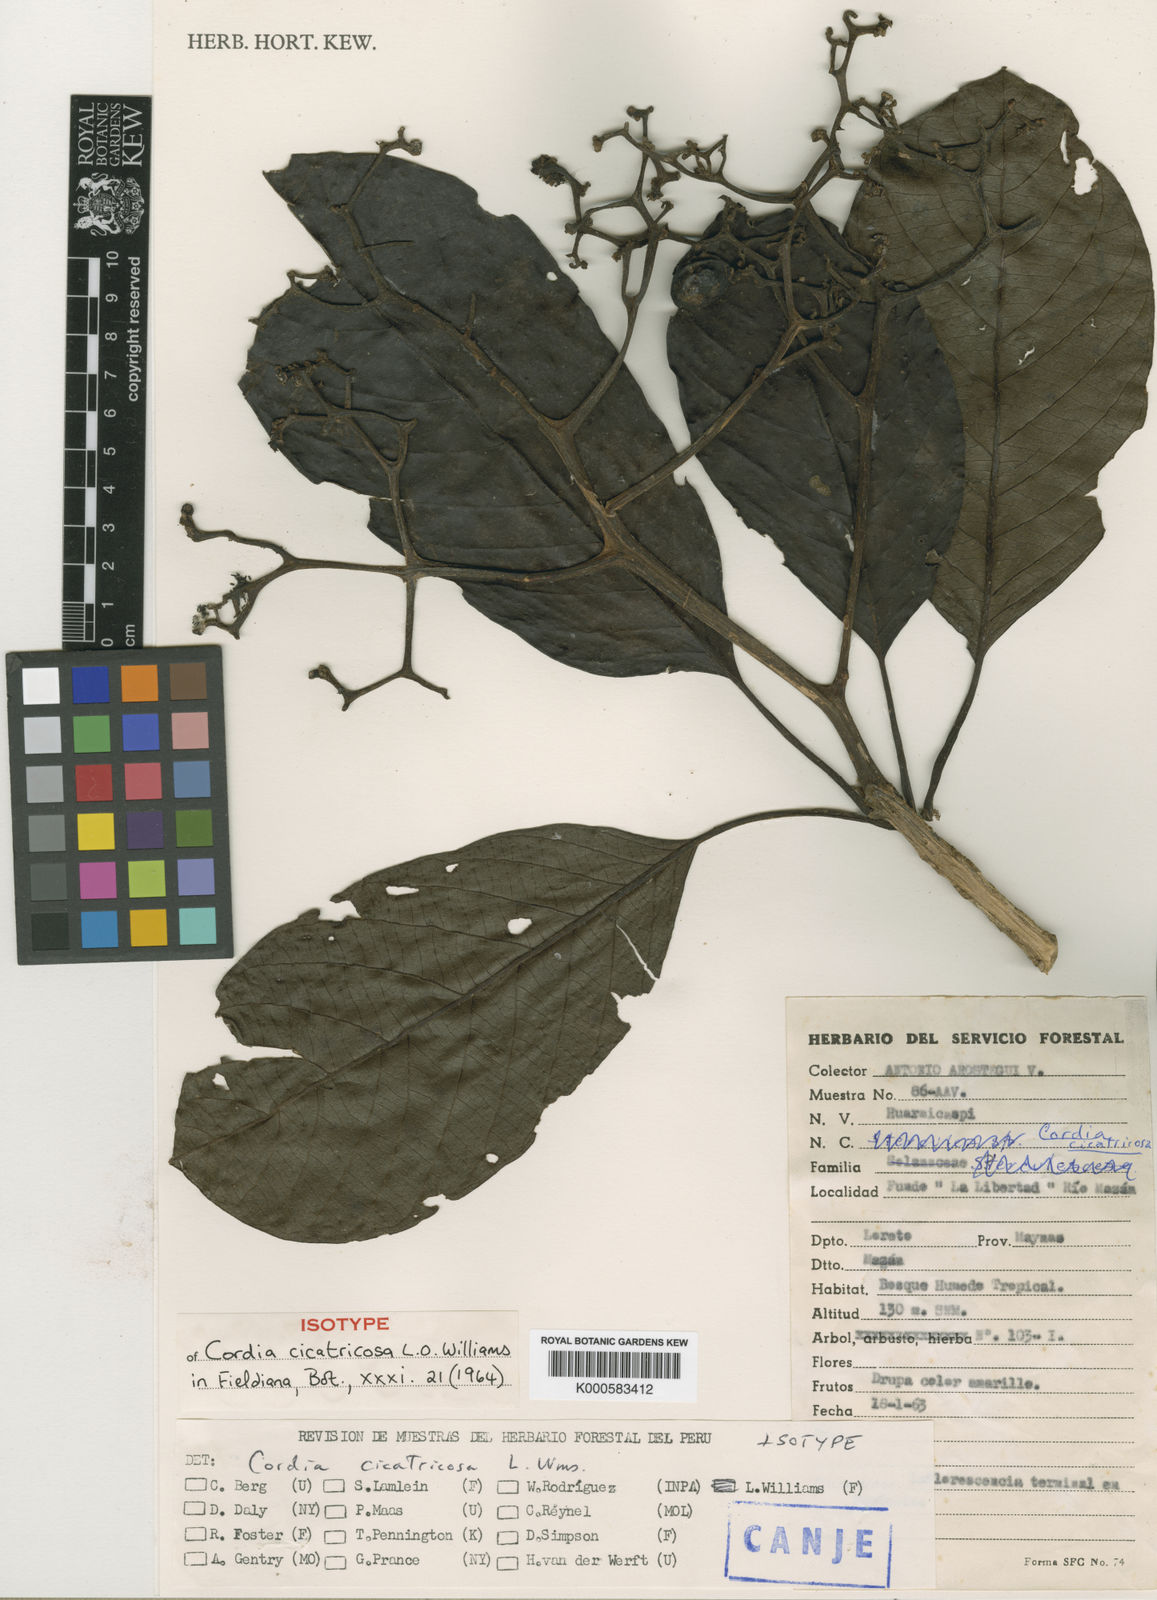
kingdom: Plantae
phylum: Tracheophyta
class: Magnoliopsida
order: Boraginales
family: Cordiaceae
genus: Cordia
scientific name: Cordia cicatricosa
